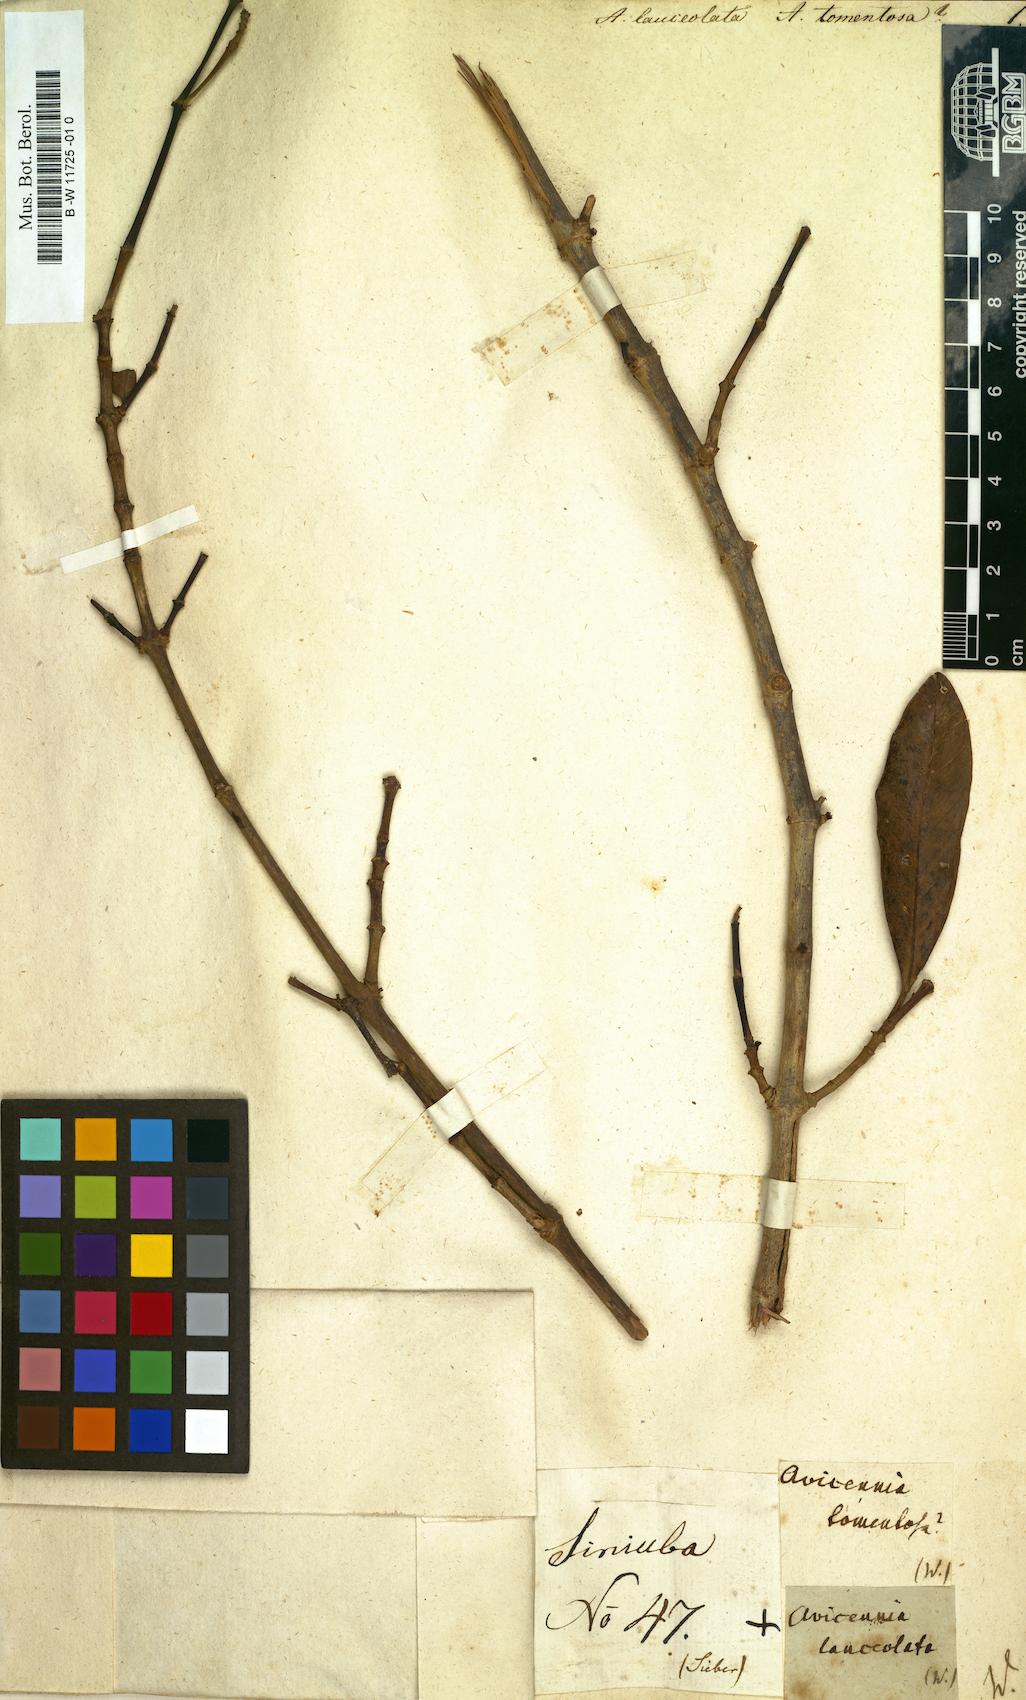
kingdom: Plantae
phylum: Tracheophyta
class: Magnoliopsida
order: Lamiales
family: Acanthaceae
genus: Avicennia
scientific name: Avicennia
